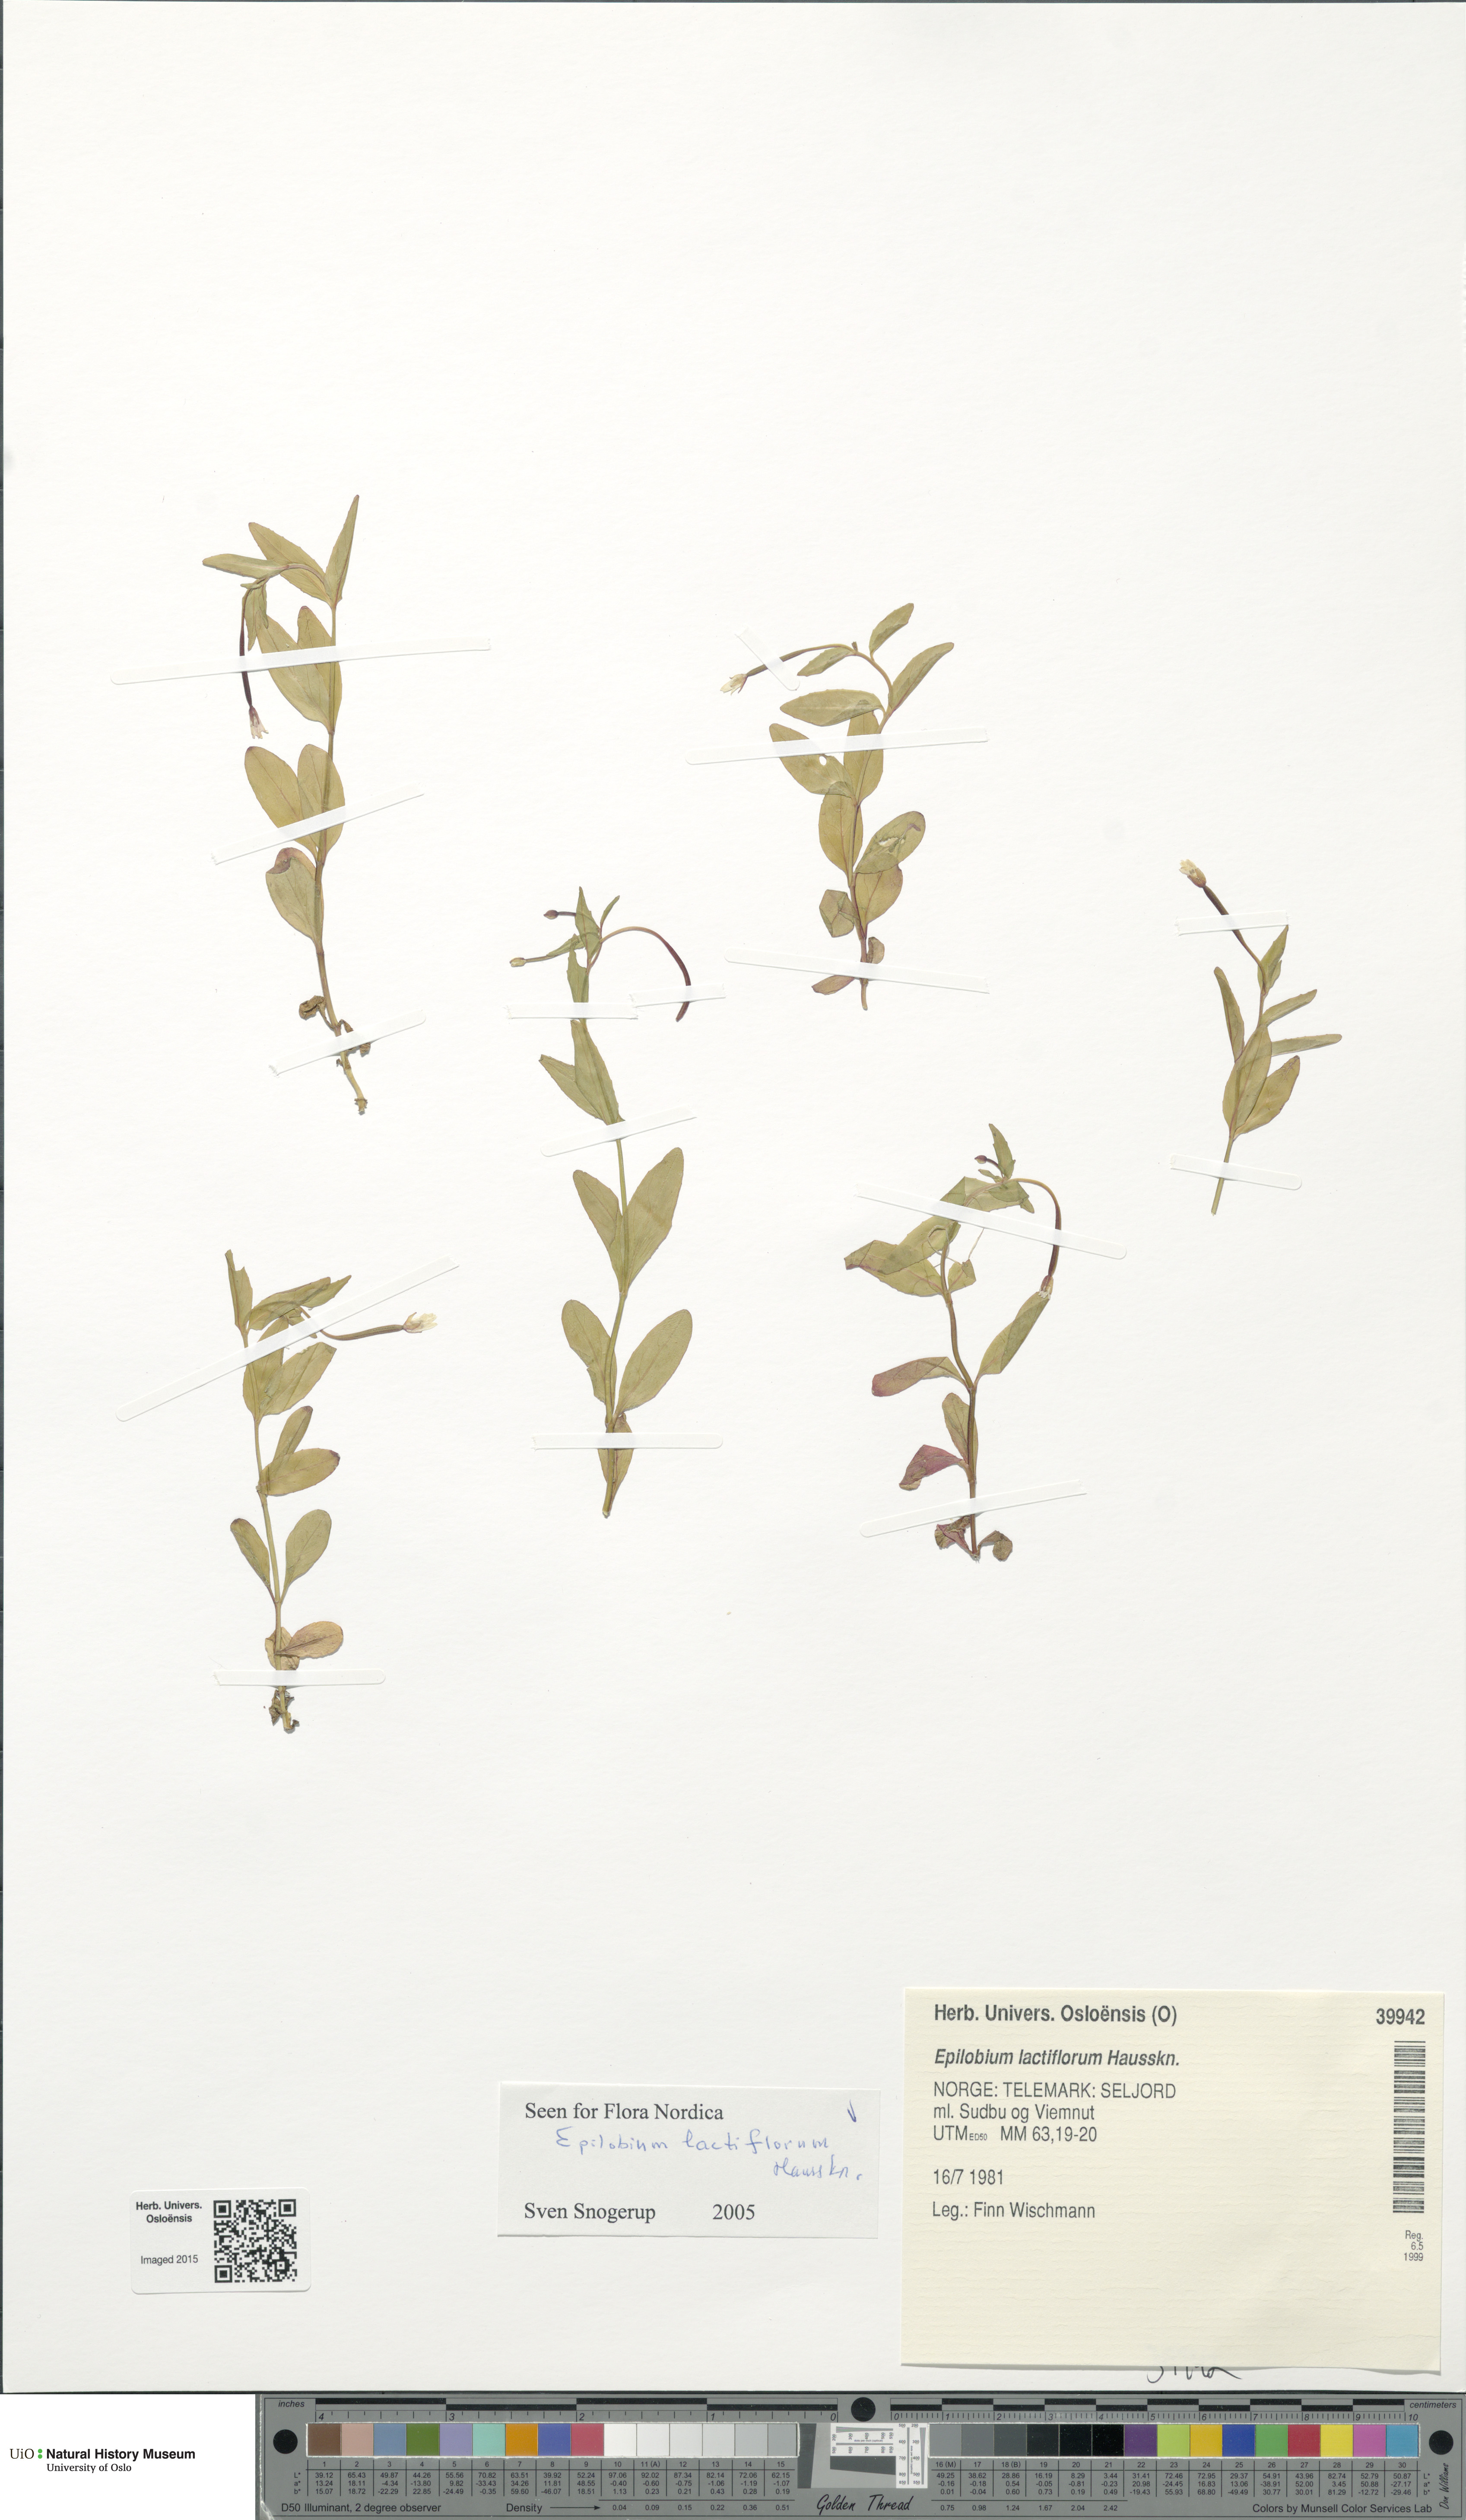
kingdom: Plantae
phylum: Tracheophyta
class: Magnoliopsida
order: Myrtales
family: Onagraceae
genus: Epilobium
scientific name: Epilobium lactiflorum
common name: Milkflower willowherb
